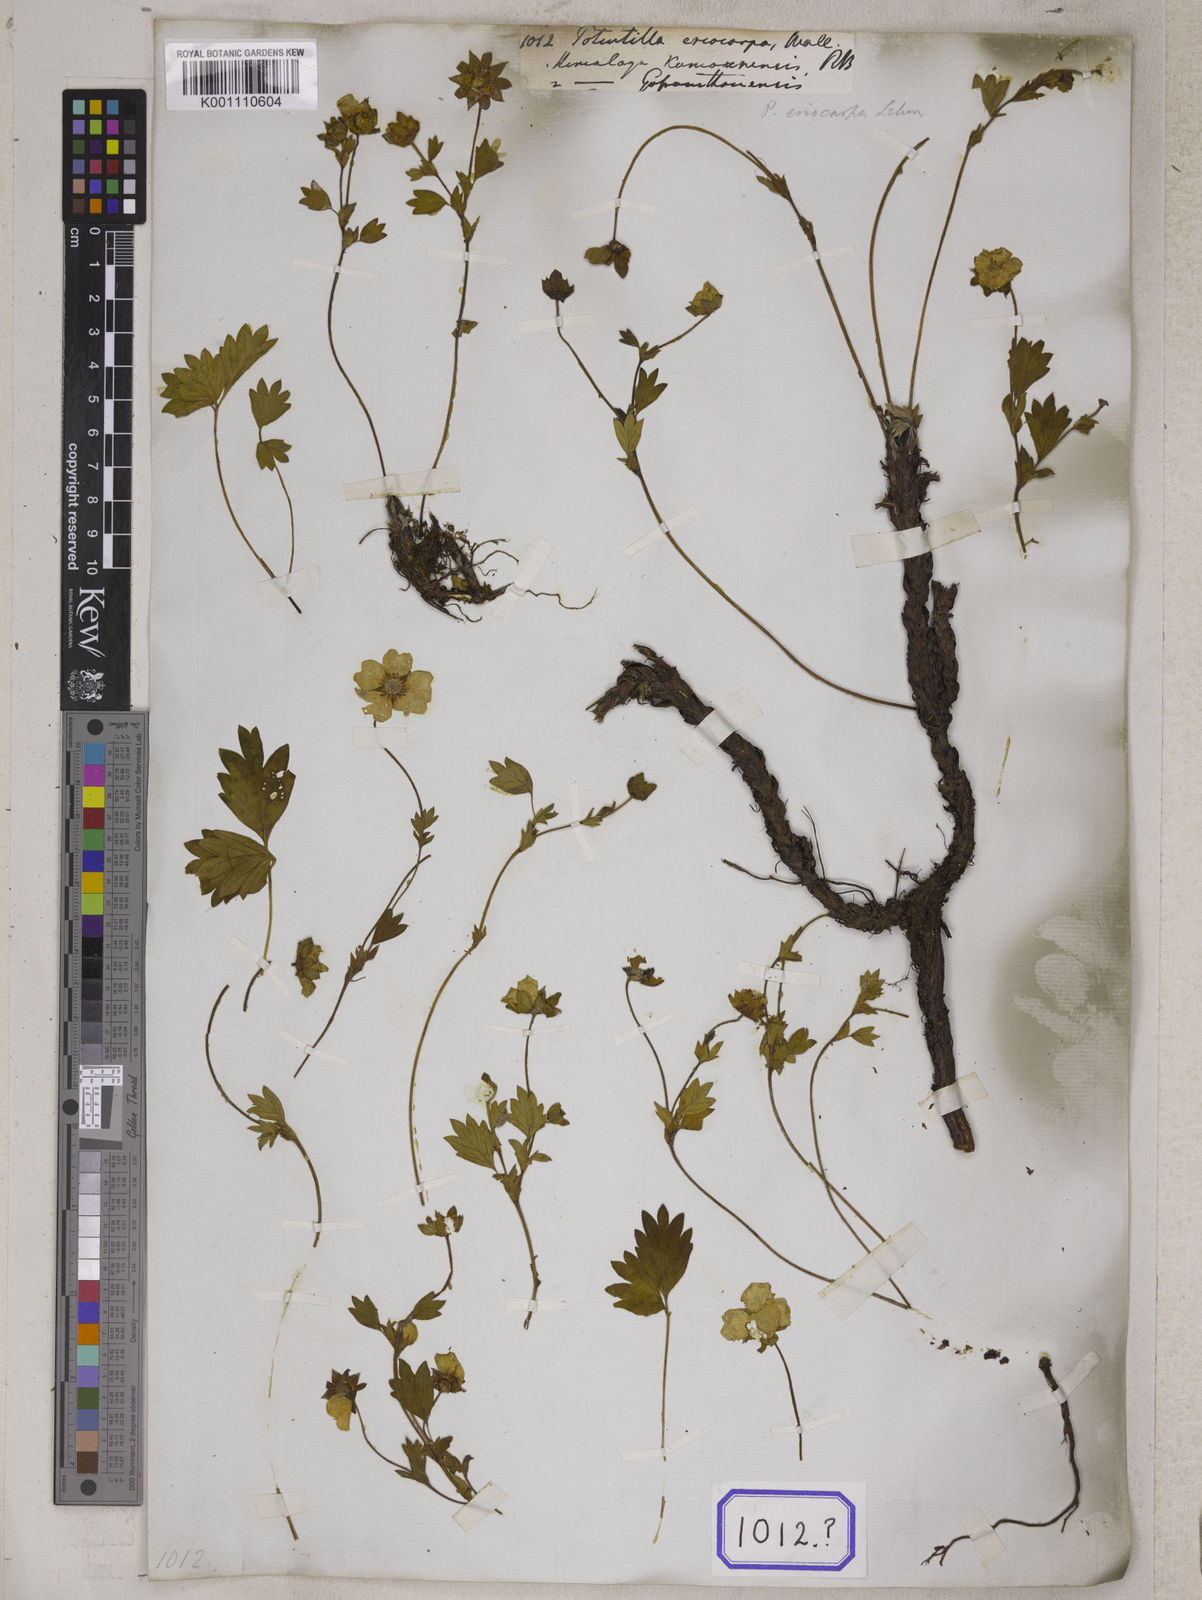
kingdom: Plantae
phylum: Tracheophyta
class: Magnoliopsida
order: Rosales
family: Rosaceae
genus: Potentilla
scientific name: Potentilla
